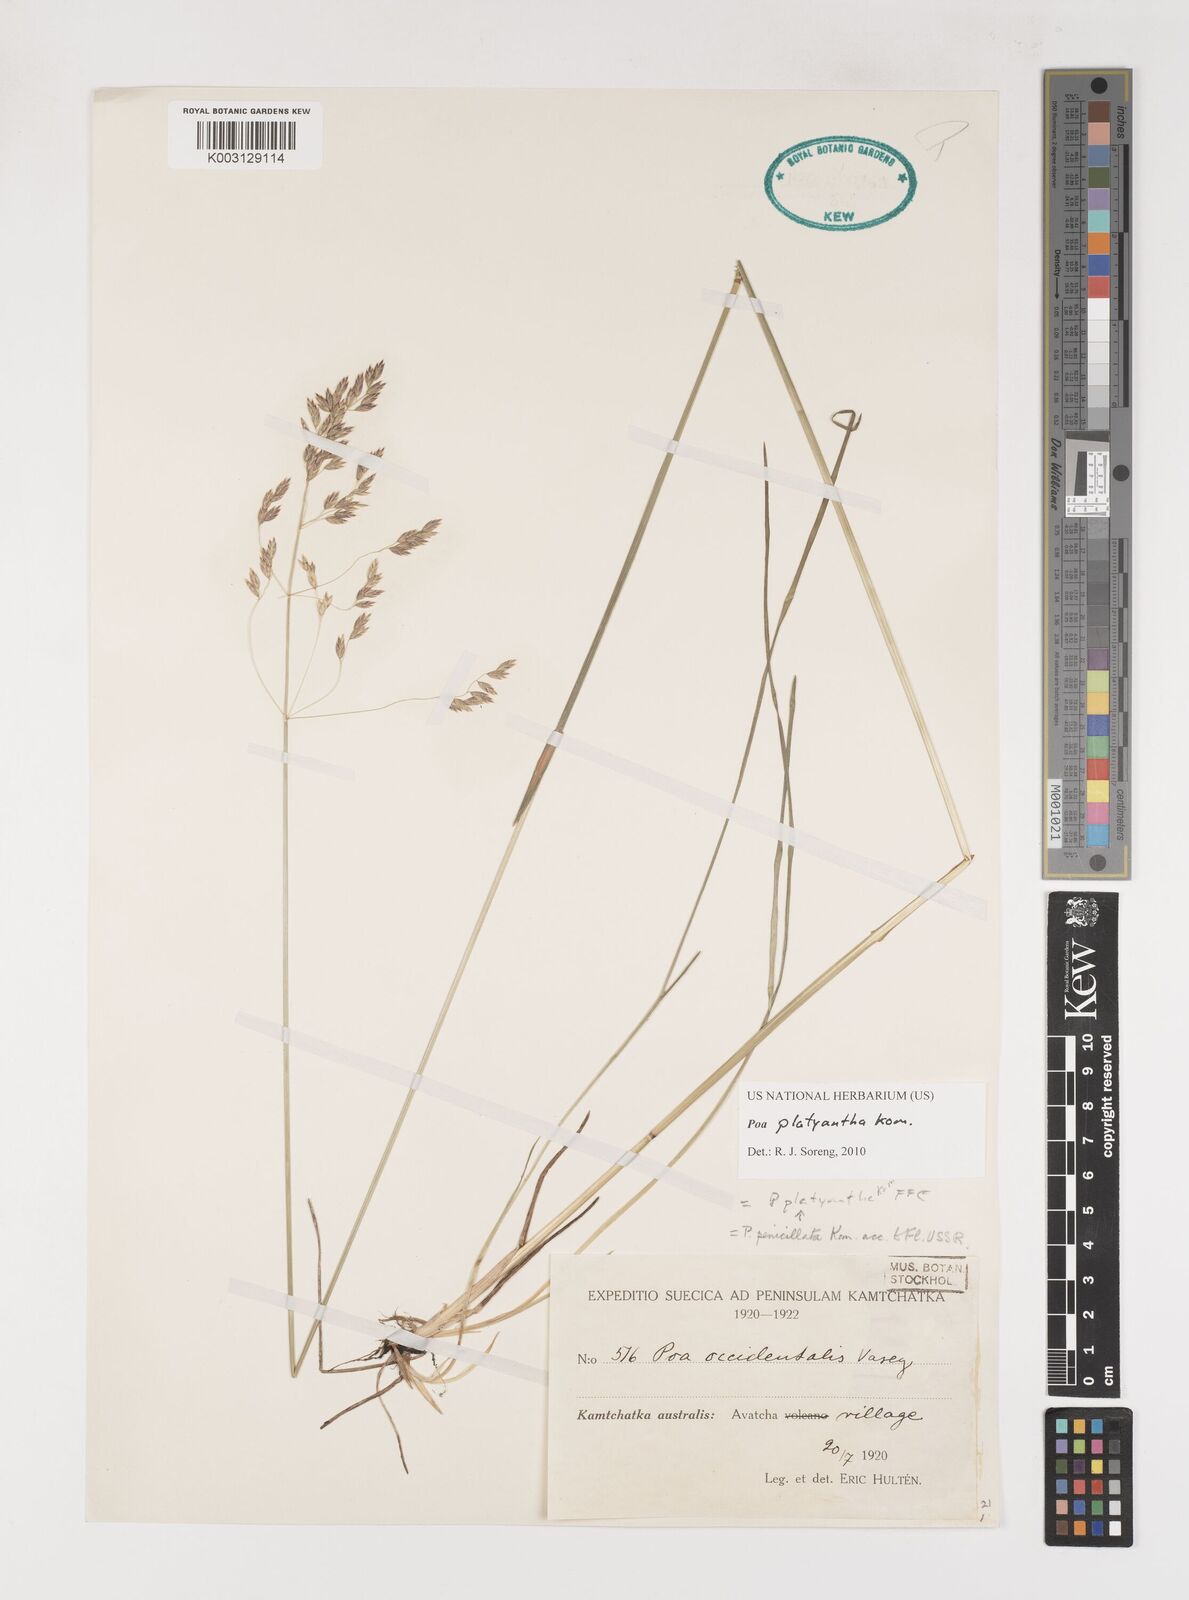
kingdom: Plantae
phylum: Tracheophyta
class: Liliopsida
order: Poales
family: Poaceae
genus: Poa
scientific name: Poa platyantha
